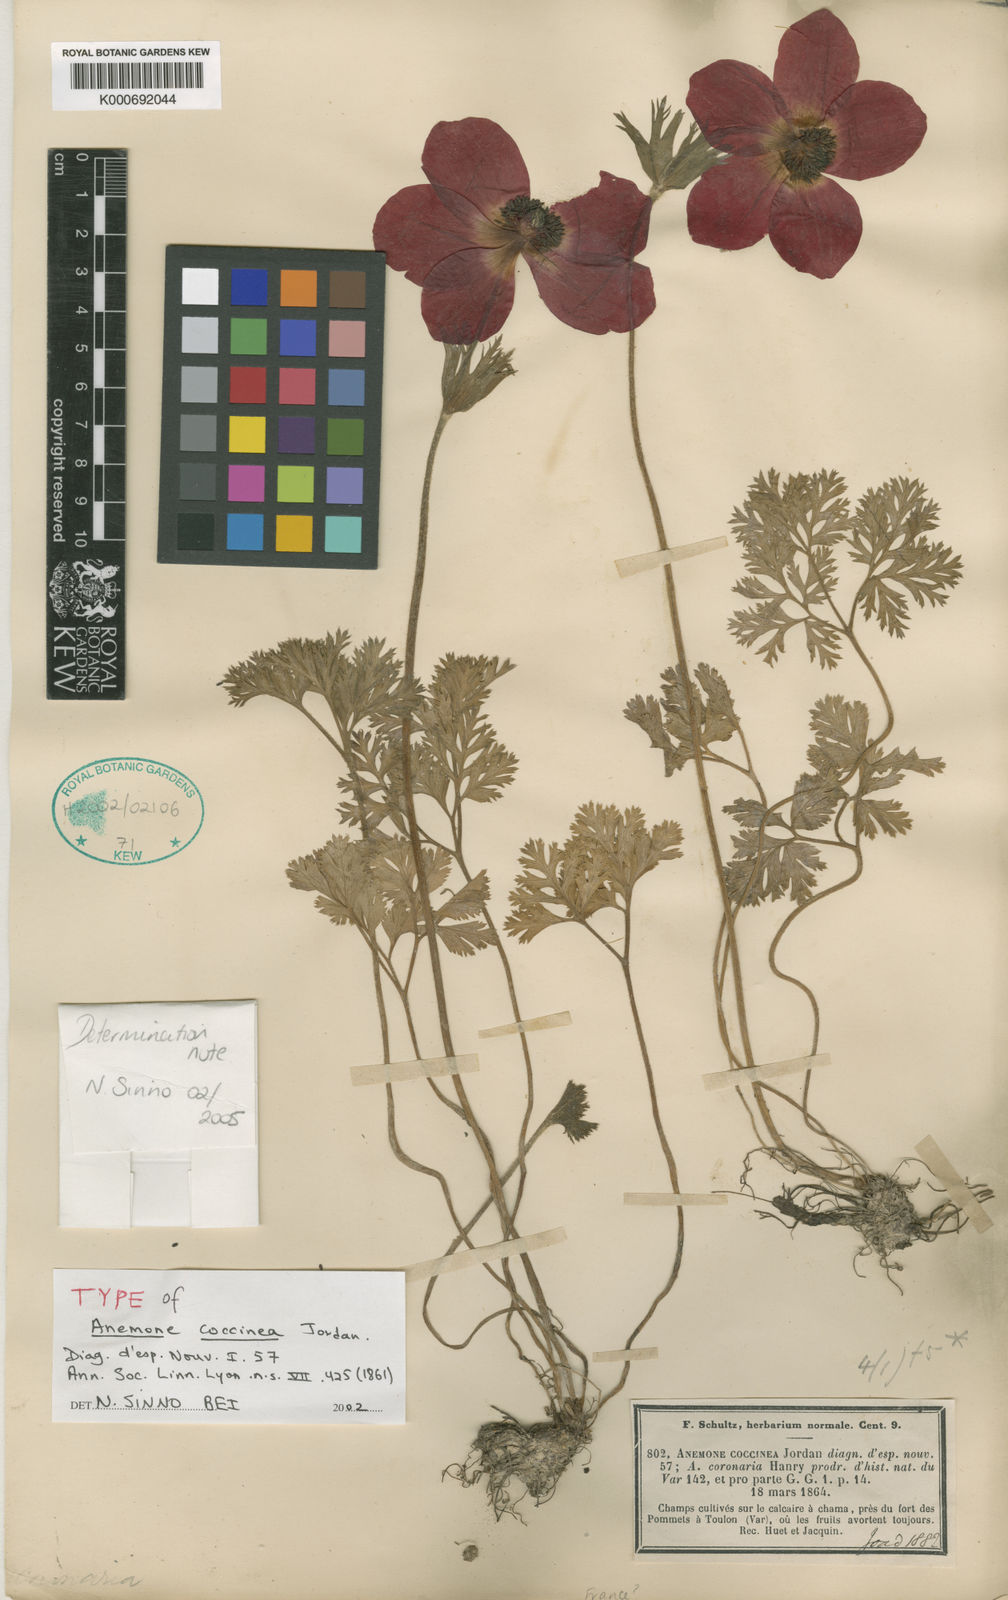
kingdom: Plantae
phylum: Tracheophyta
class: Magnoliopsida
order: Ranunculales
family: Ranunculaceae
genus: Anemone
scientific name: Anemone coronaria
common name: Poppy anemone
